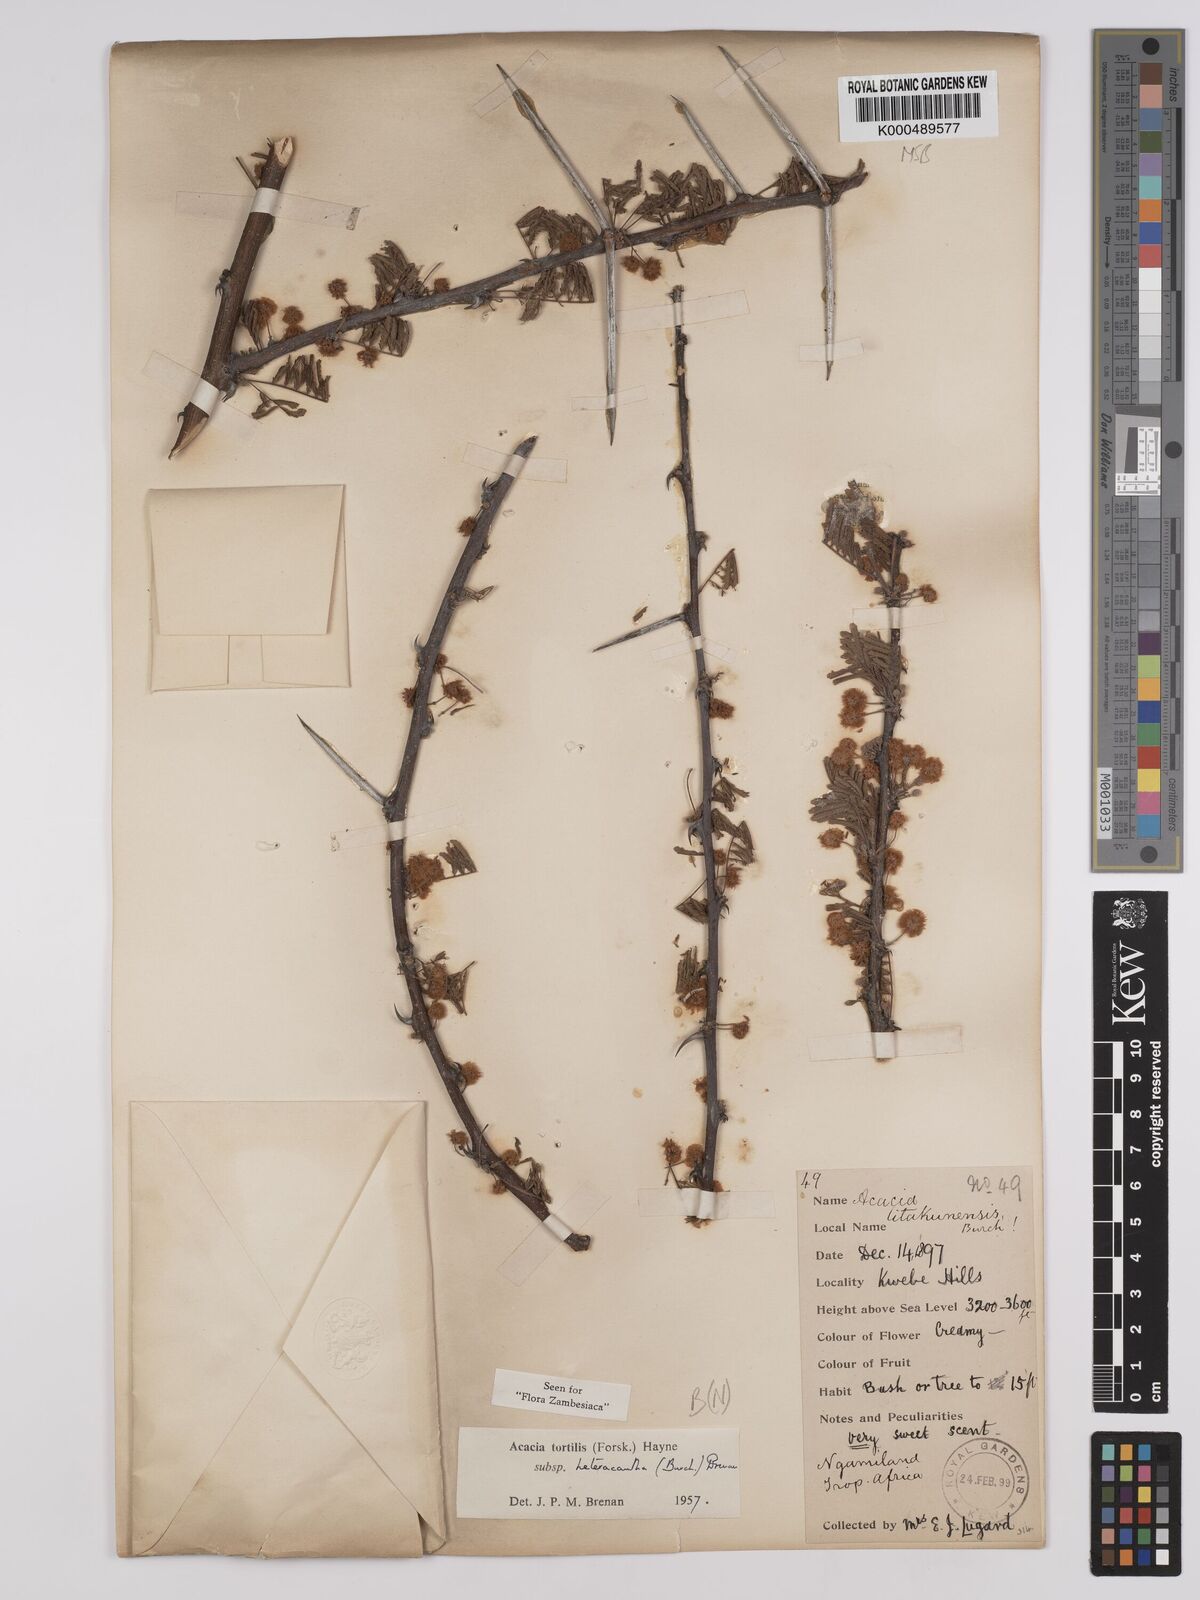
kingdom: Plantae
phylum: Tracheophyta
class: Magnoliopsida
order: Fabales
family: Fabaceae
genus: Vachellia
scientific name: Vachellia tortilis
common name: Umbrella thorn acacia
